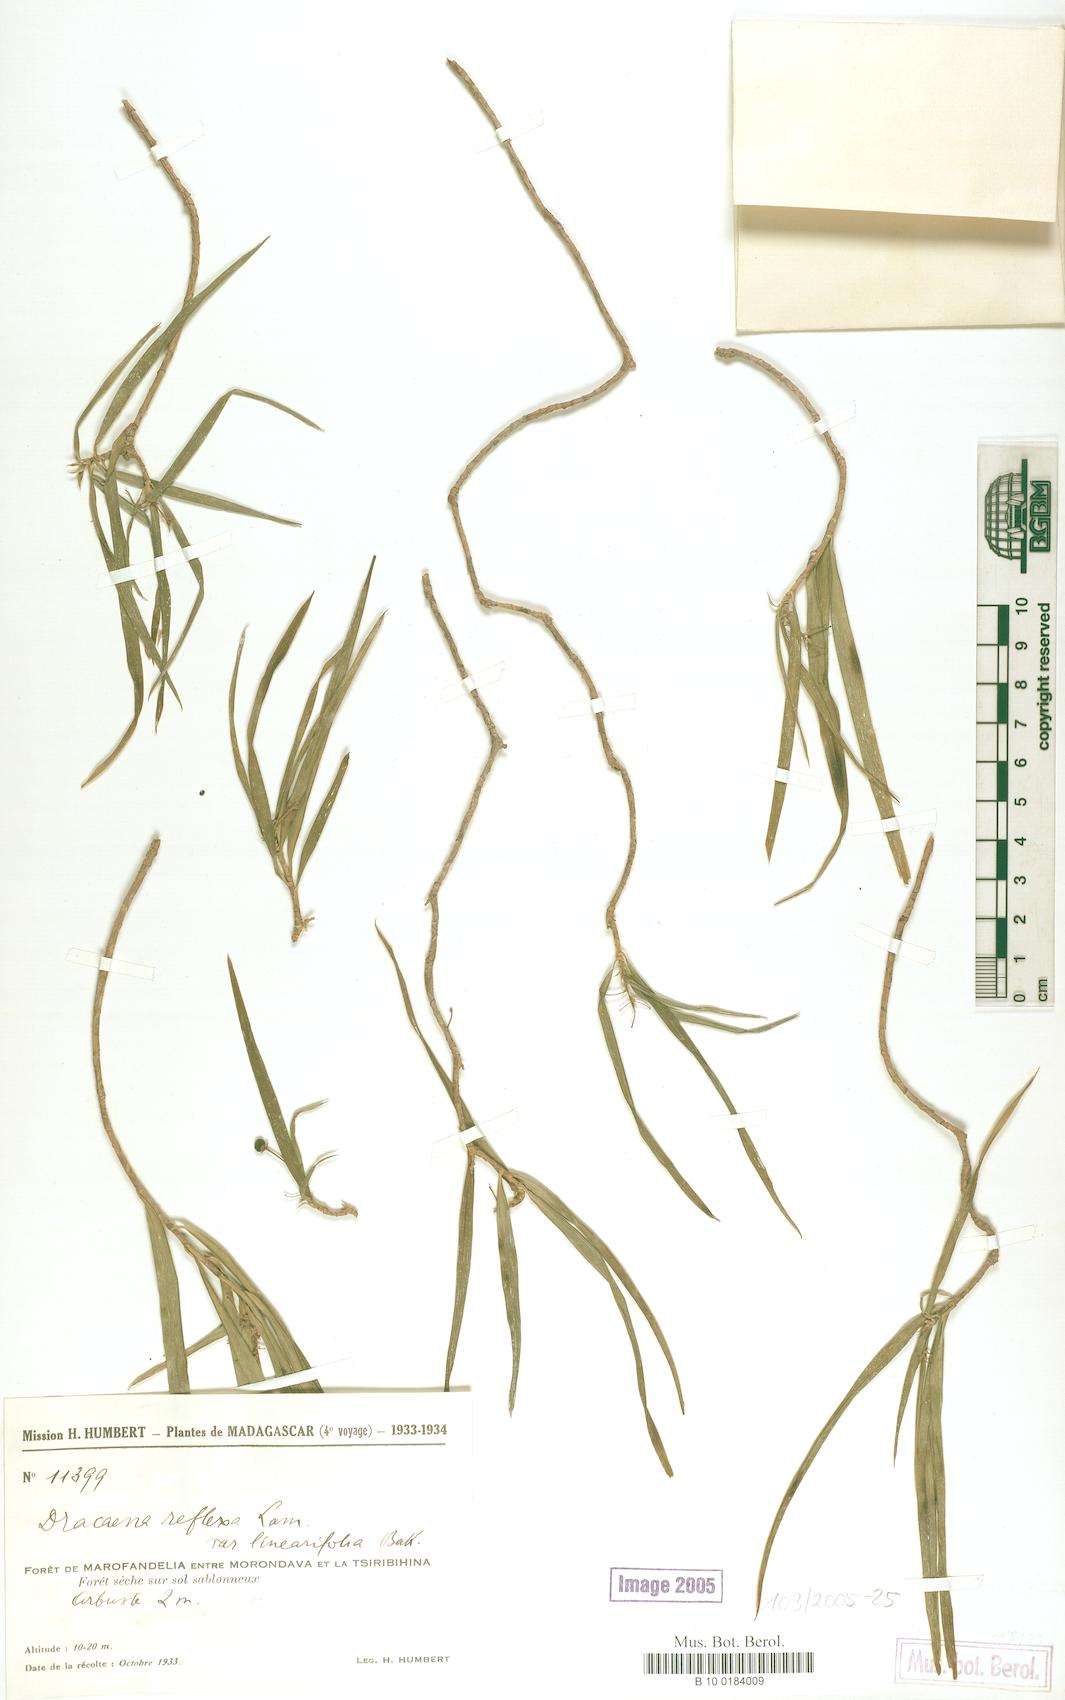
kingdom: Plantae
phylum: Tracheophyta
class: Liliopsida
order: Asparagales
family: Asparagaceae
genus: Dracaena
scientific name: Dracaena reflexa
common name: Song-of-india
